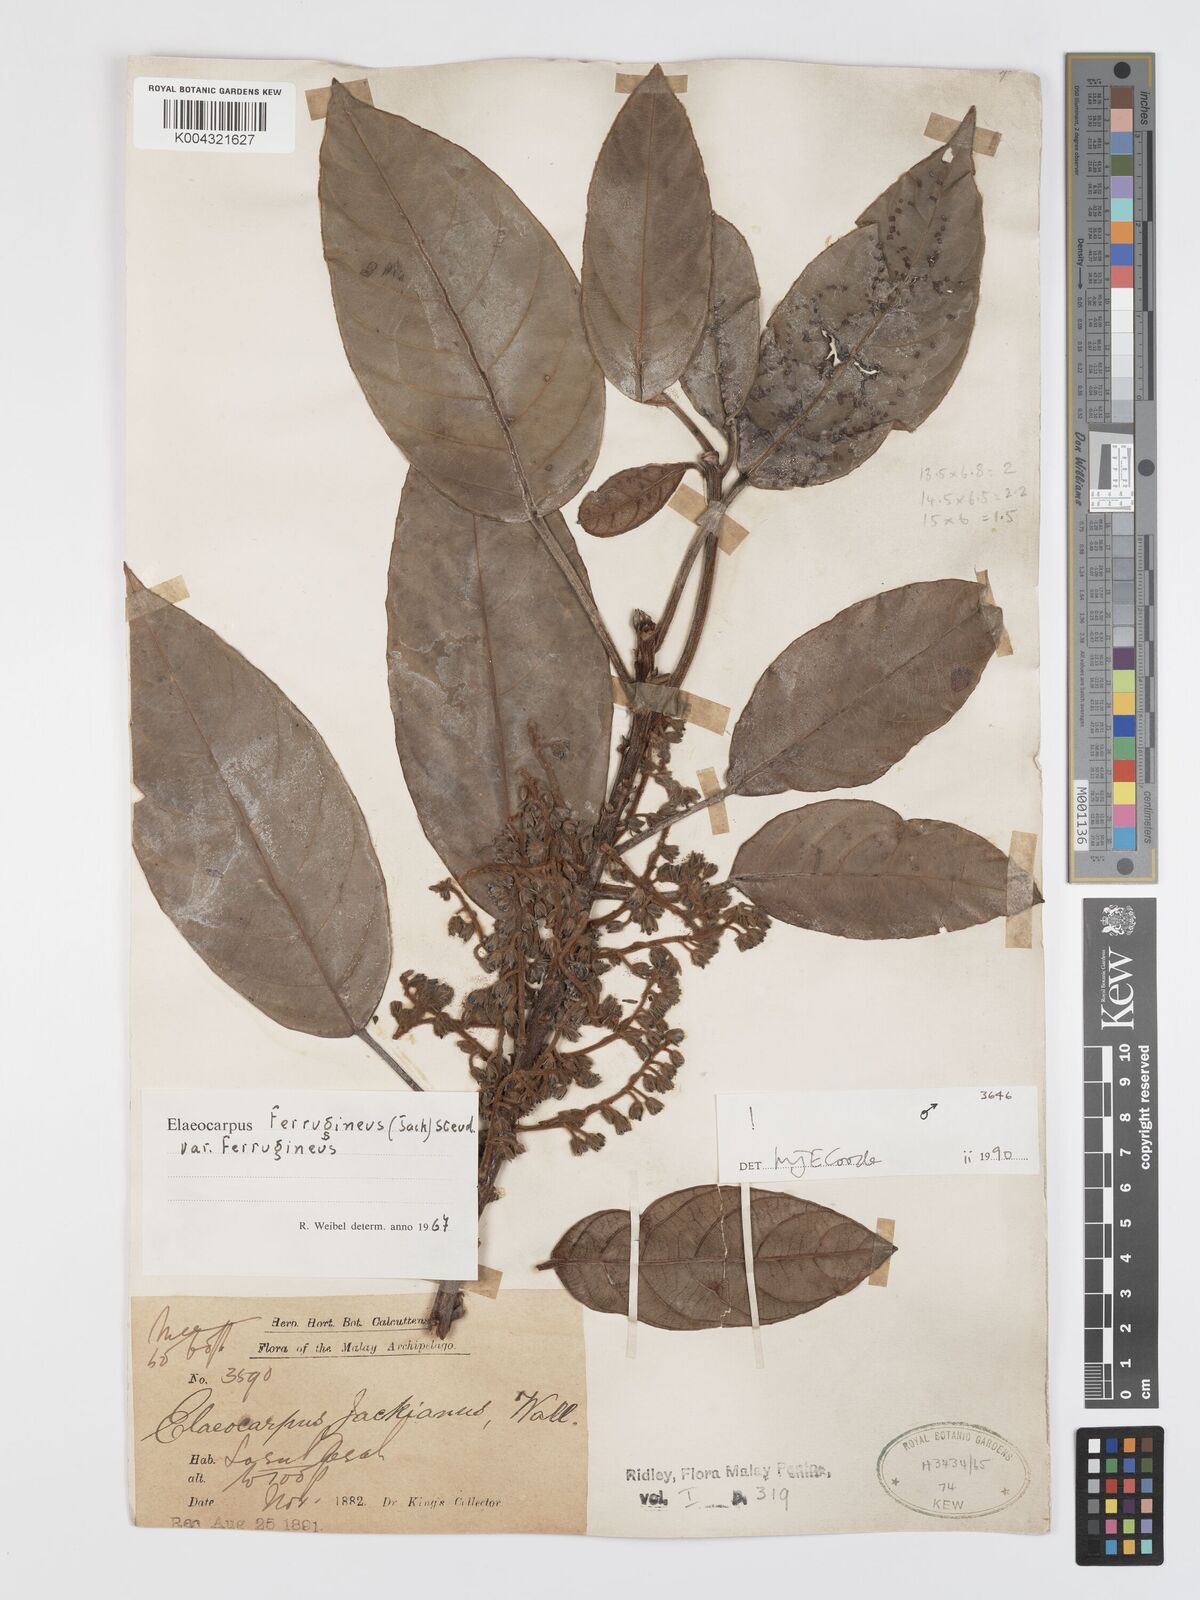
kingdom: Plantae
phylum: Tracheophyta
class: Magnoliopsida
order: Oxalidales
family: Elaeocarpaceae
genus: Elaeocarpus
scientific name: Elaeocarpus ferrugineus
